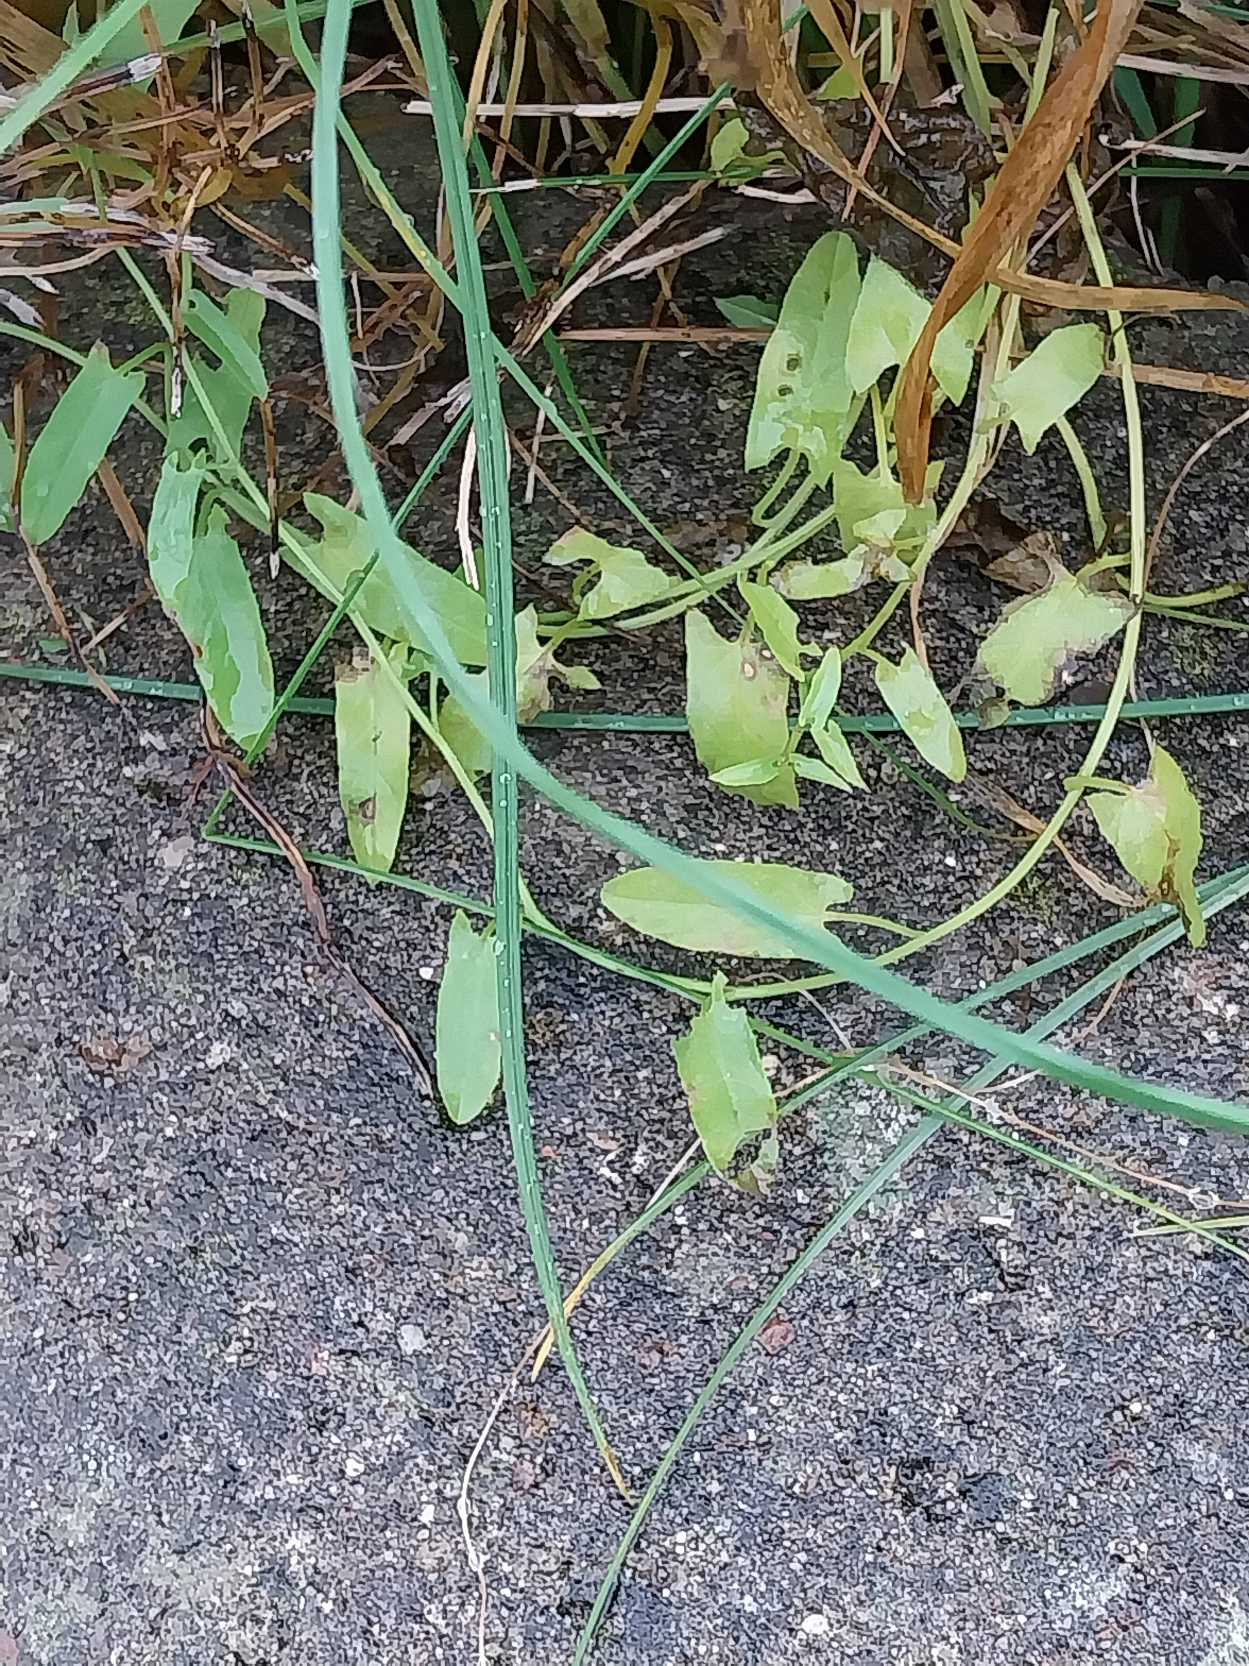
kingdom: Plantae
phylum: Tracheophyta
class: Magnoliopsida
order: Solanales
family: Convolvulaceae
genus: Convolvulus
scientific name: Convolvulus arvensis
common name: Ager-snerle
